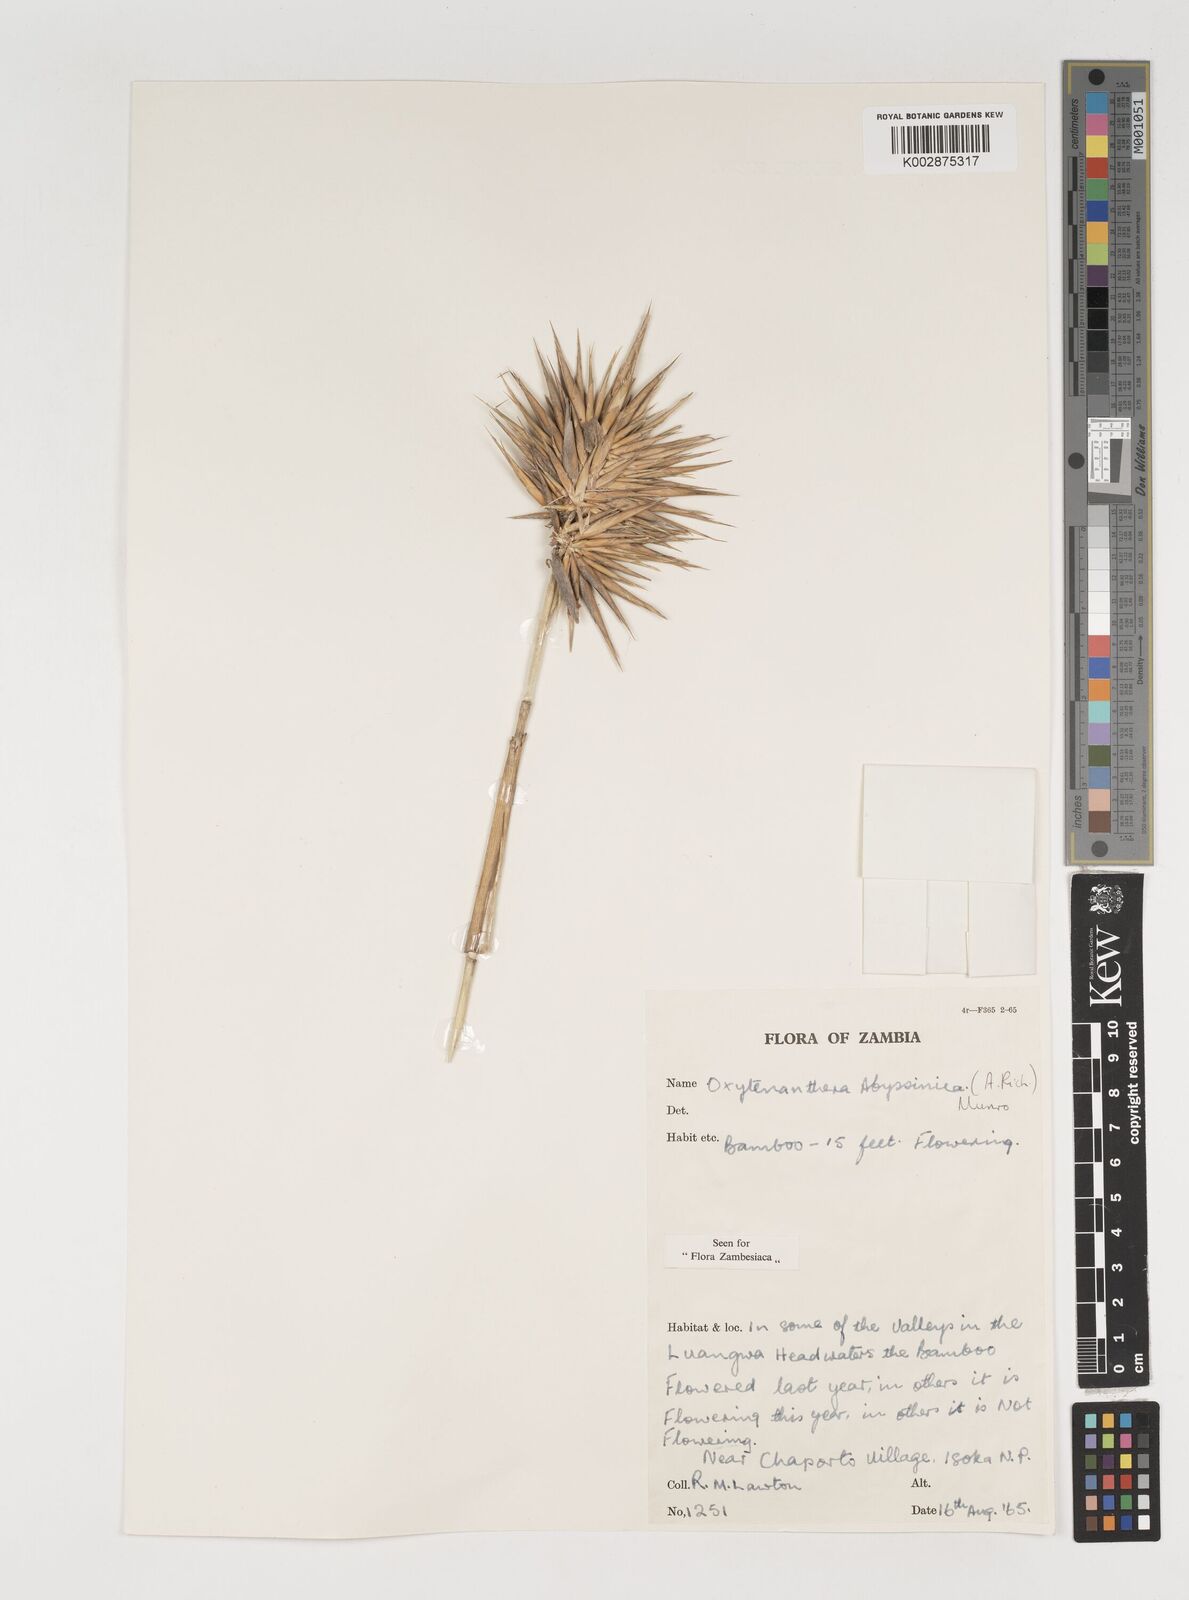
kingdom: Plantae
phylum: Tracheophyta
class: Liliopsida
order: Poales
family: Poaceae
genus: Oxytenanthera
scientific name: Oxytenanthera abyssinica
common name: Wine bamboo
